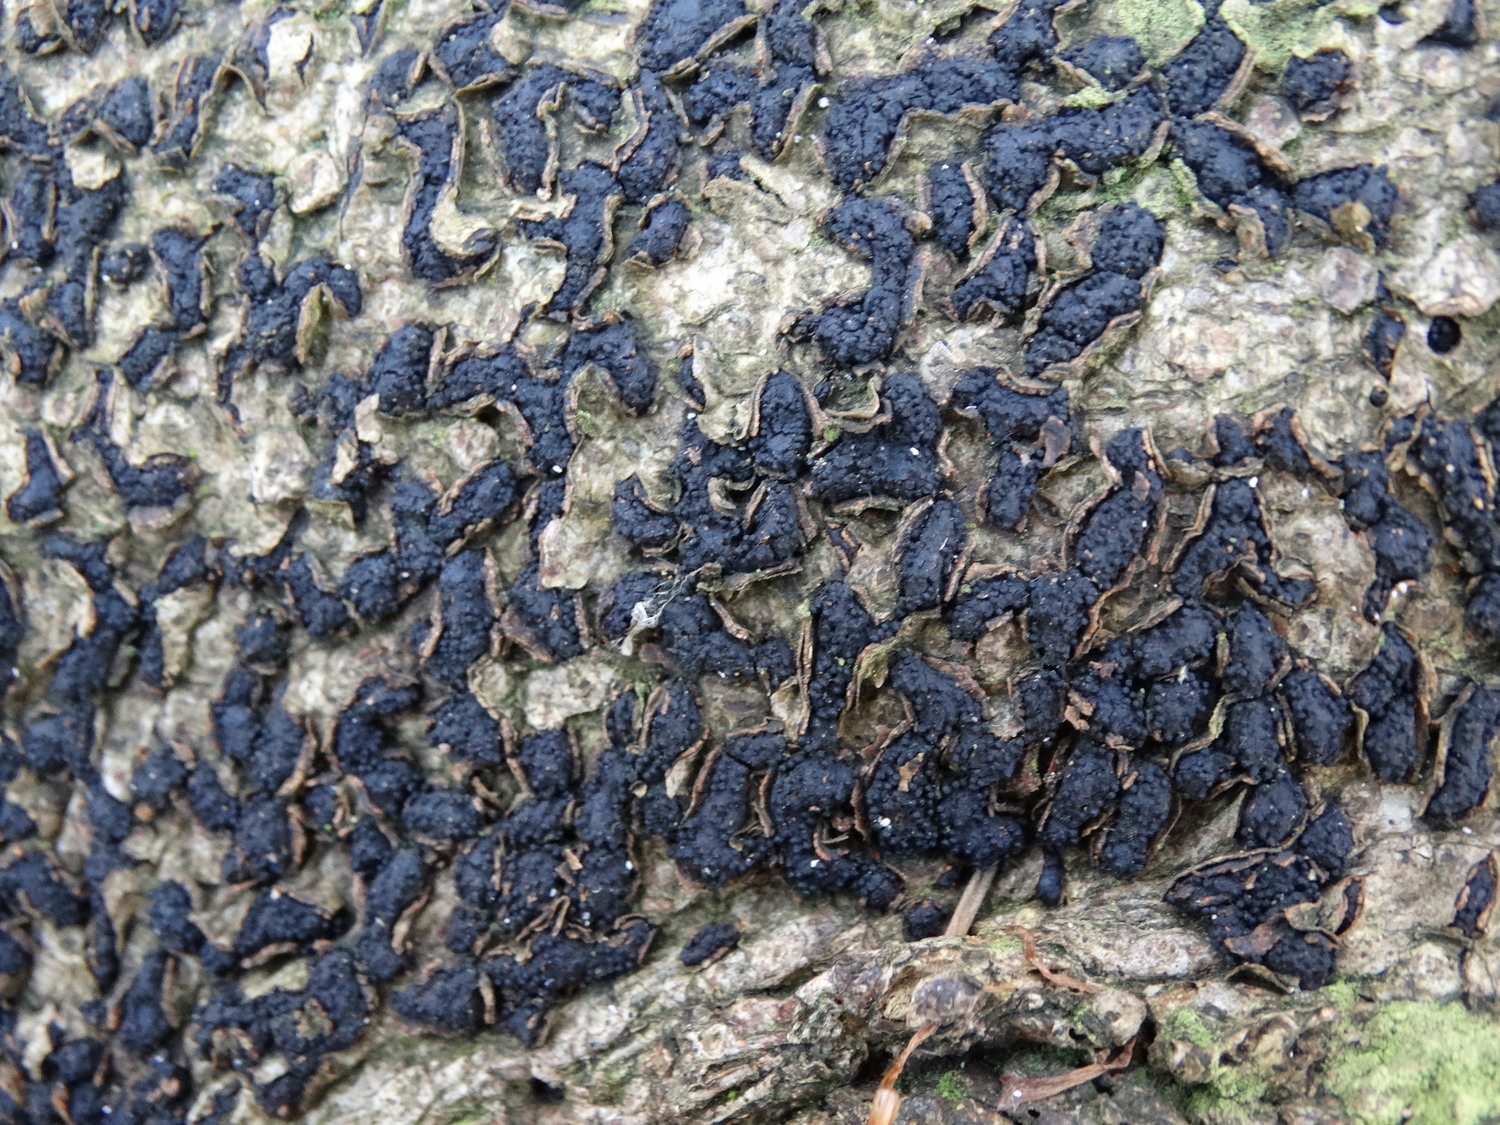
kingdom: Fungi
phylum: Ascomycota
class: Sordariomycetes
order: Xylariales
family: Melogrammataceae
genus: Melogramma
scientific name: Melogramma spiniferum
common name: bøgefod-kulhals
